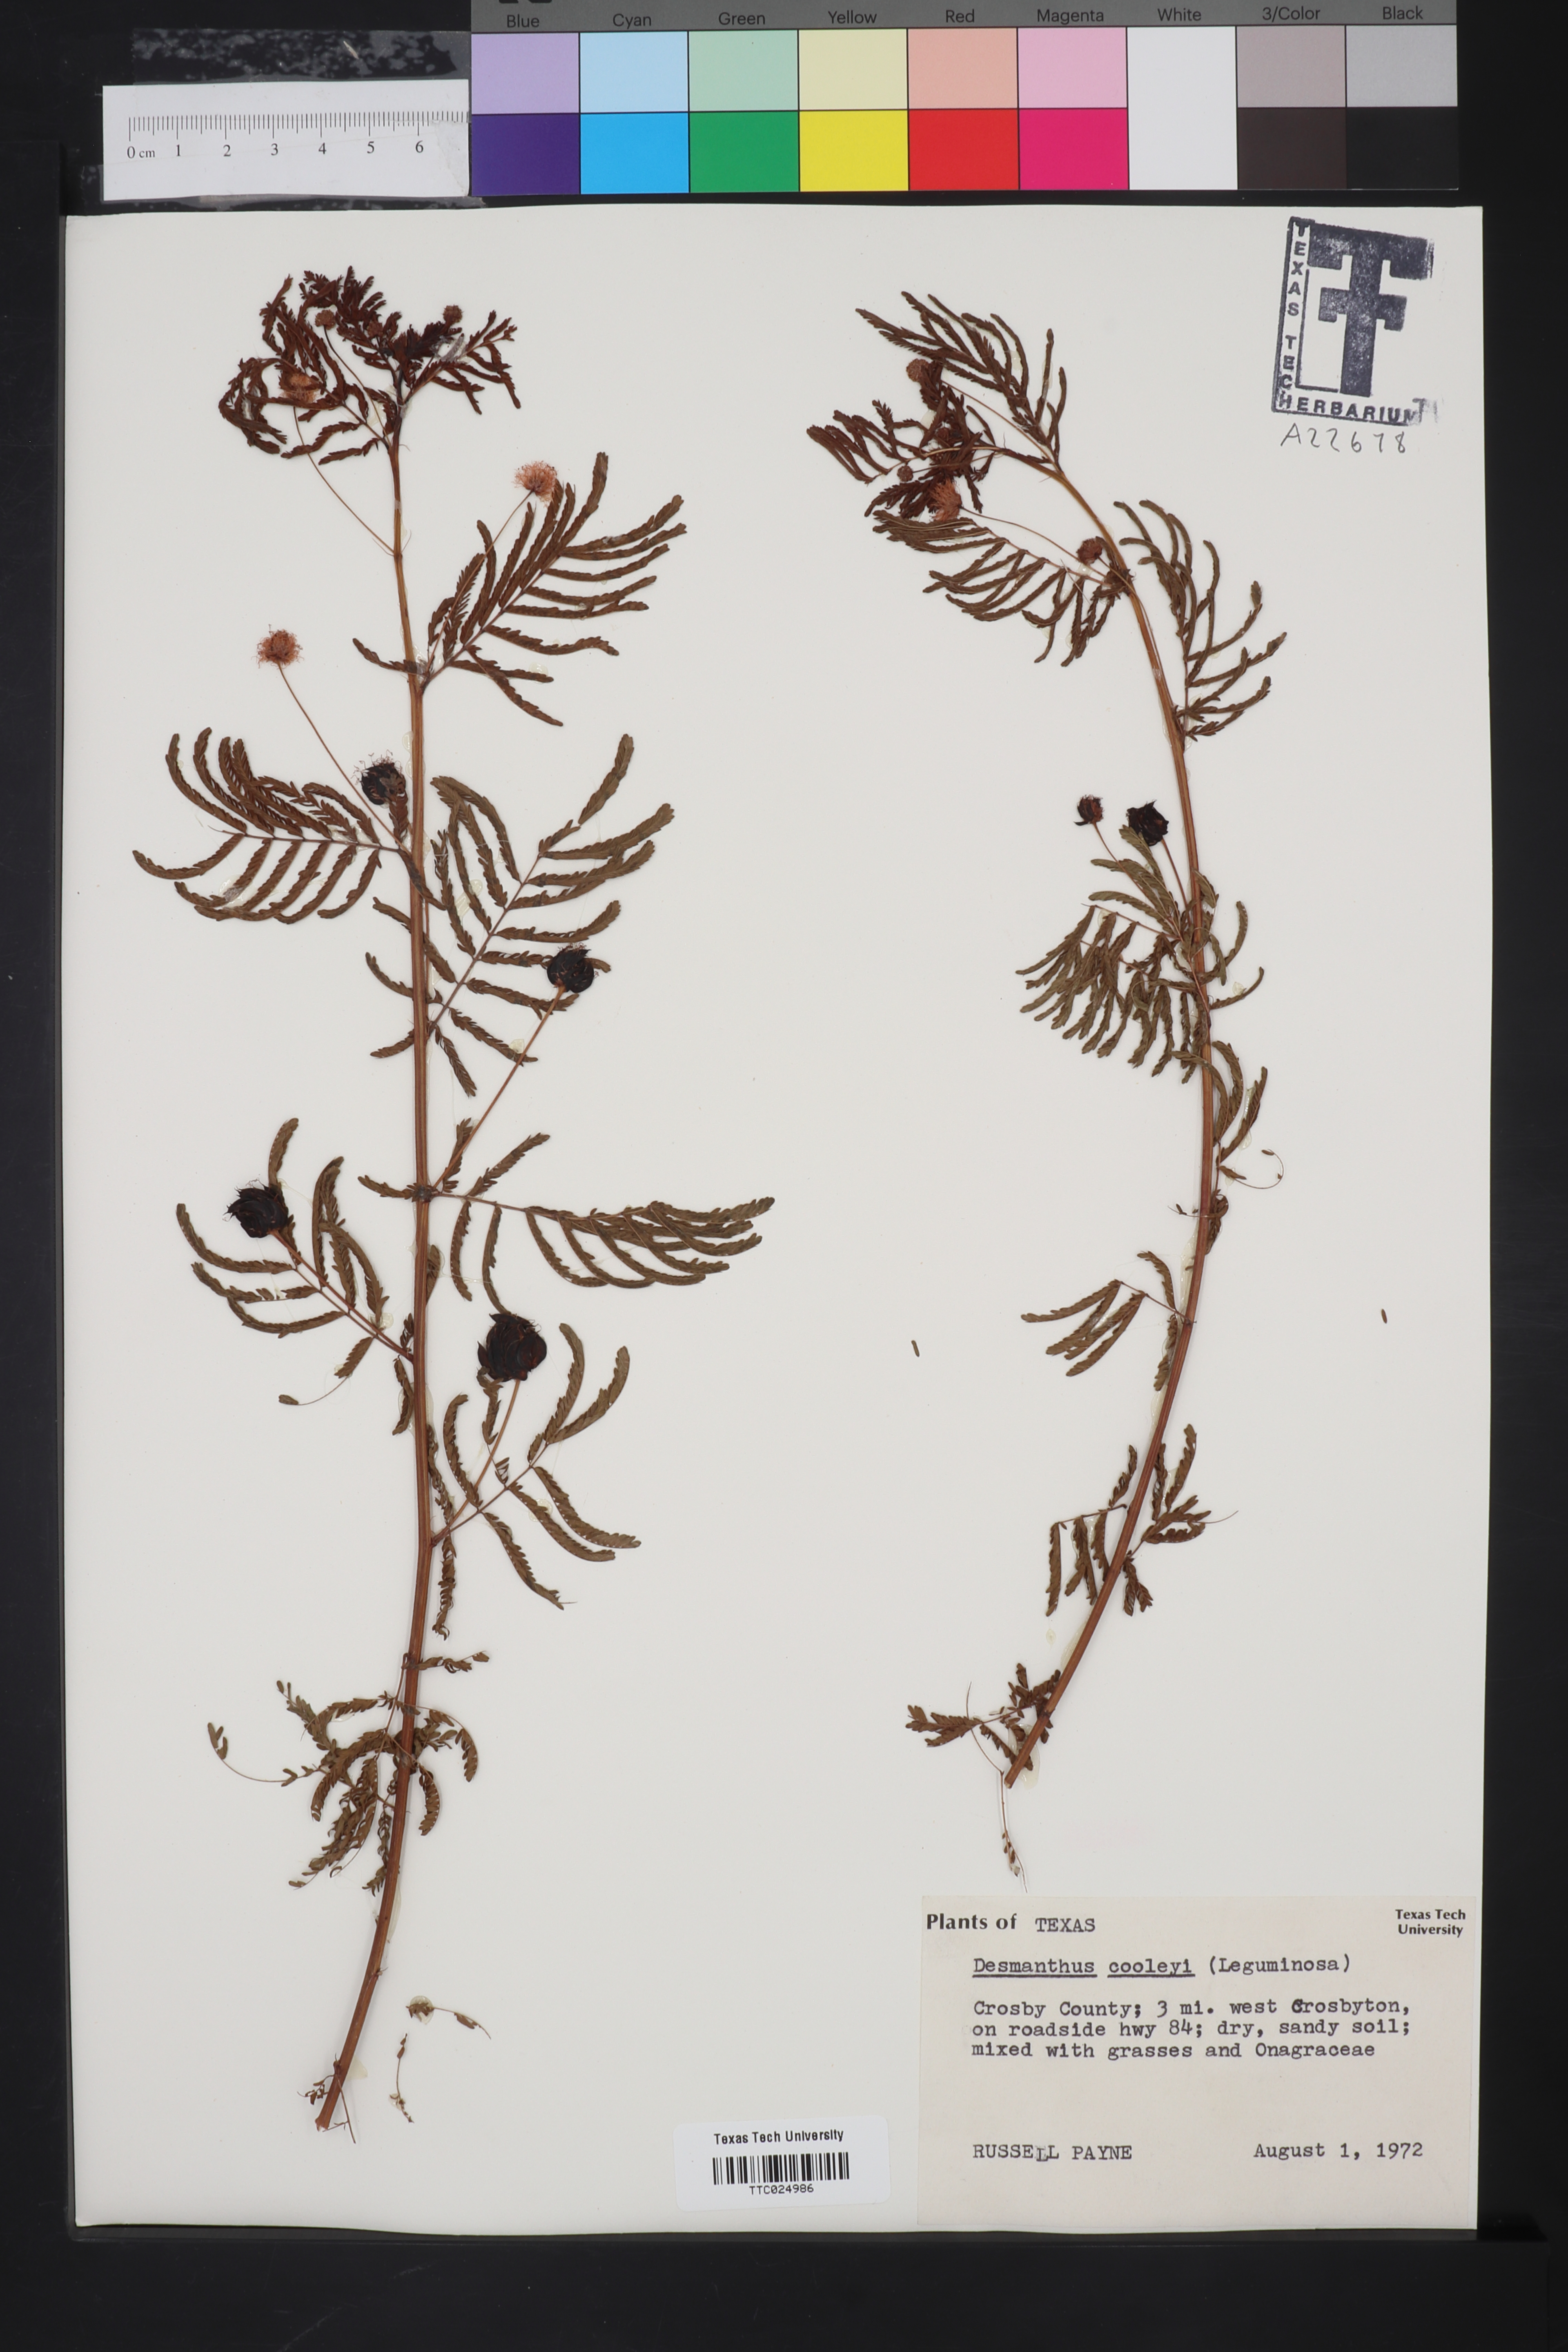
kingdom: Plantae
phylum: Tracheophyta
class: Magnoliopsida
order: Fabales
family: Fabaceae
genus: Desmanthus
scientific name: Desmanthus cooleyi
